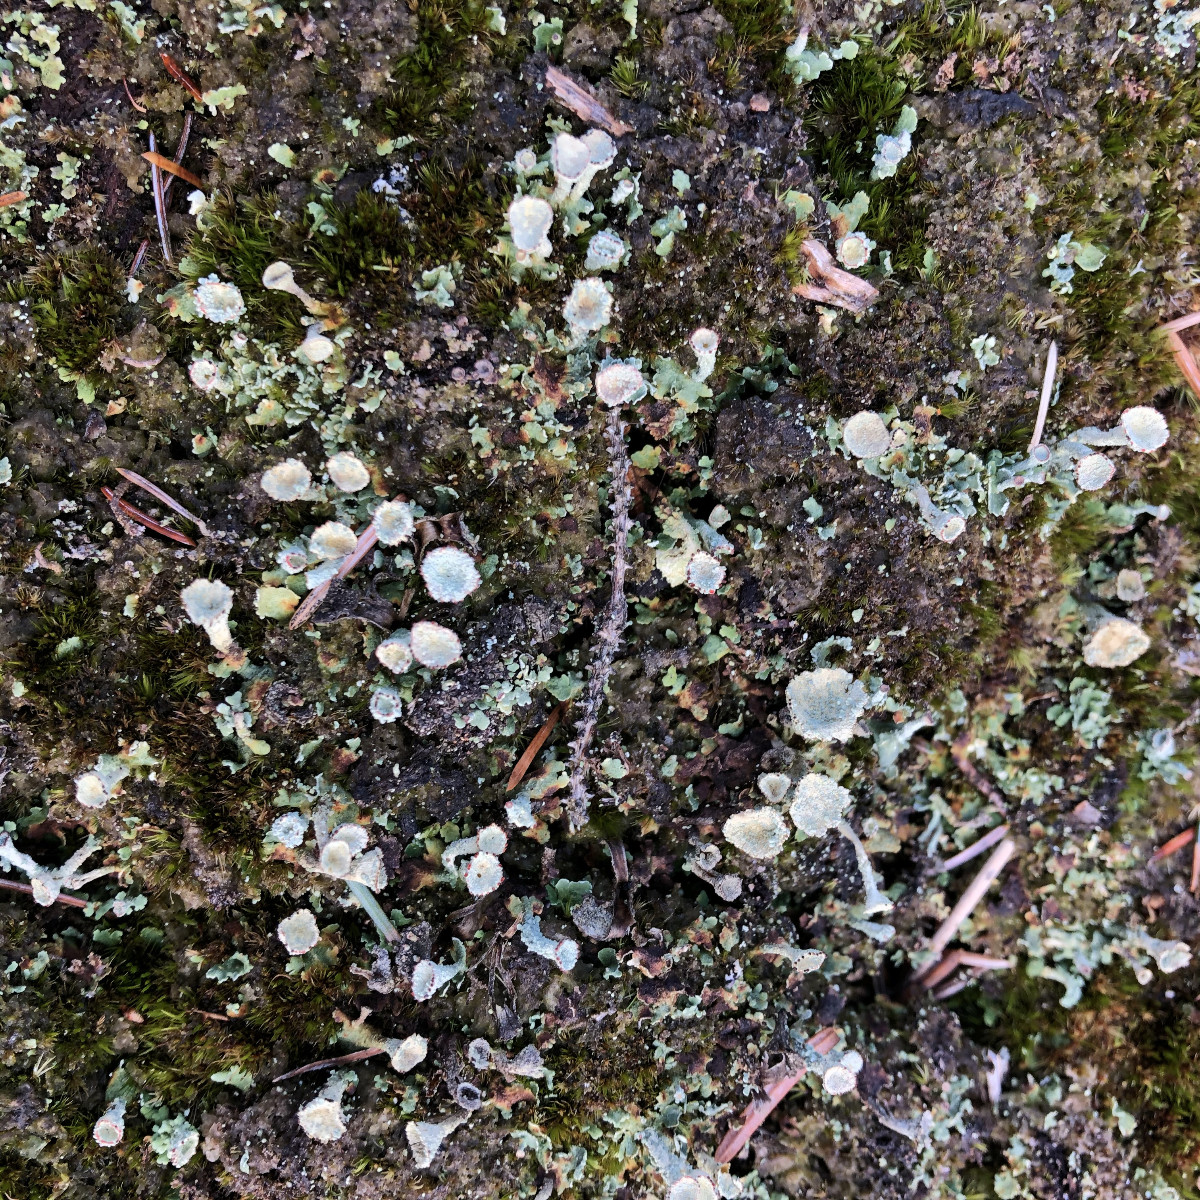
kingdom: Fungi
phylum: Ascomycota
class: Lecanoromycetes
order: Lecanorales
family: Cladoniaceae
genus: Cladonia
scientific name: Cladonia borealis
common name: nordlig bægerlav
